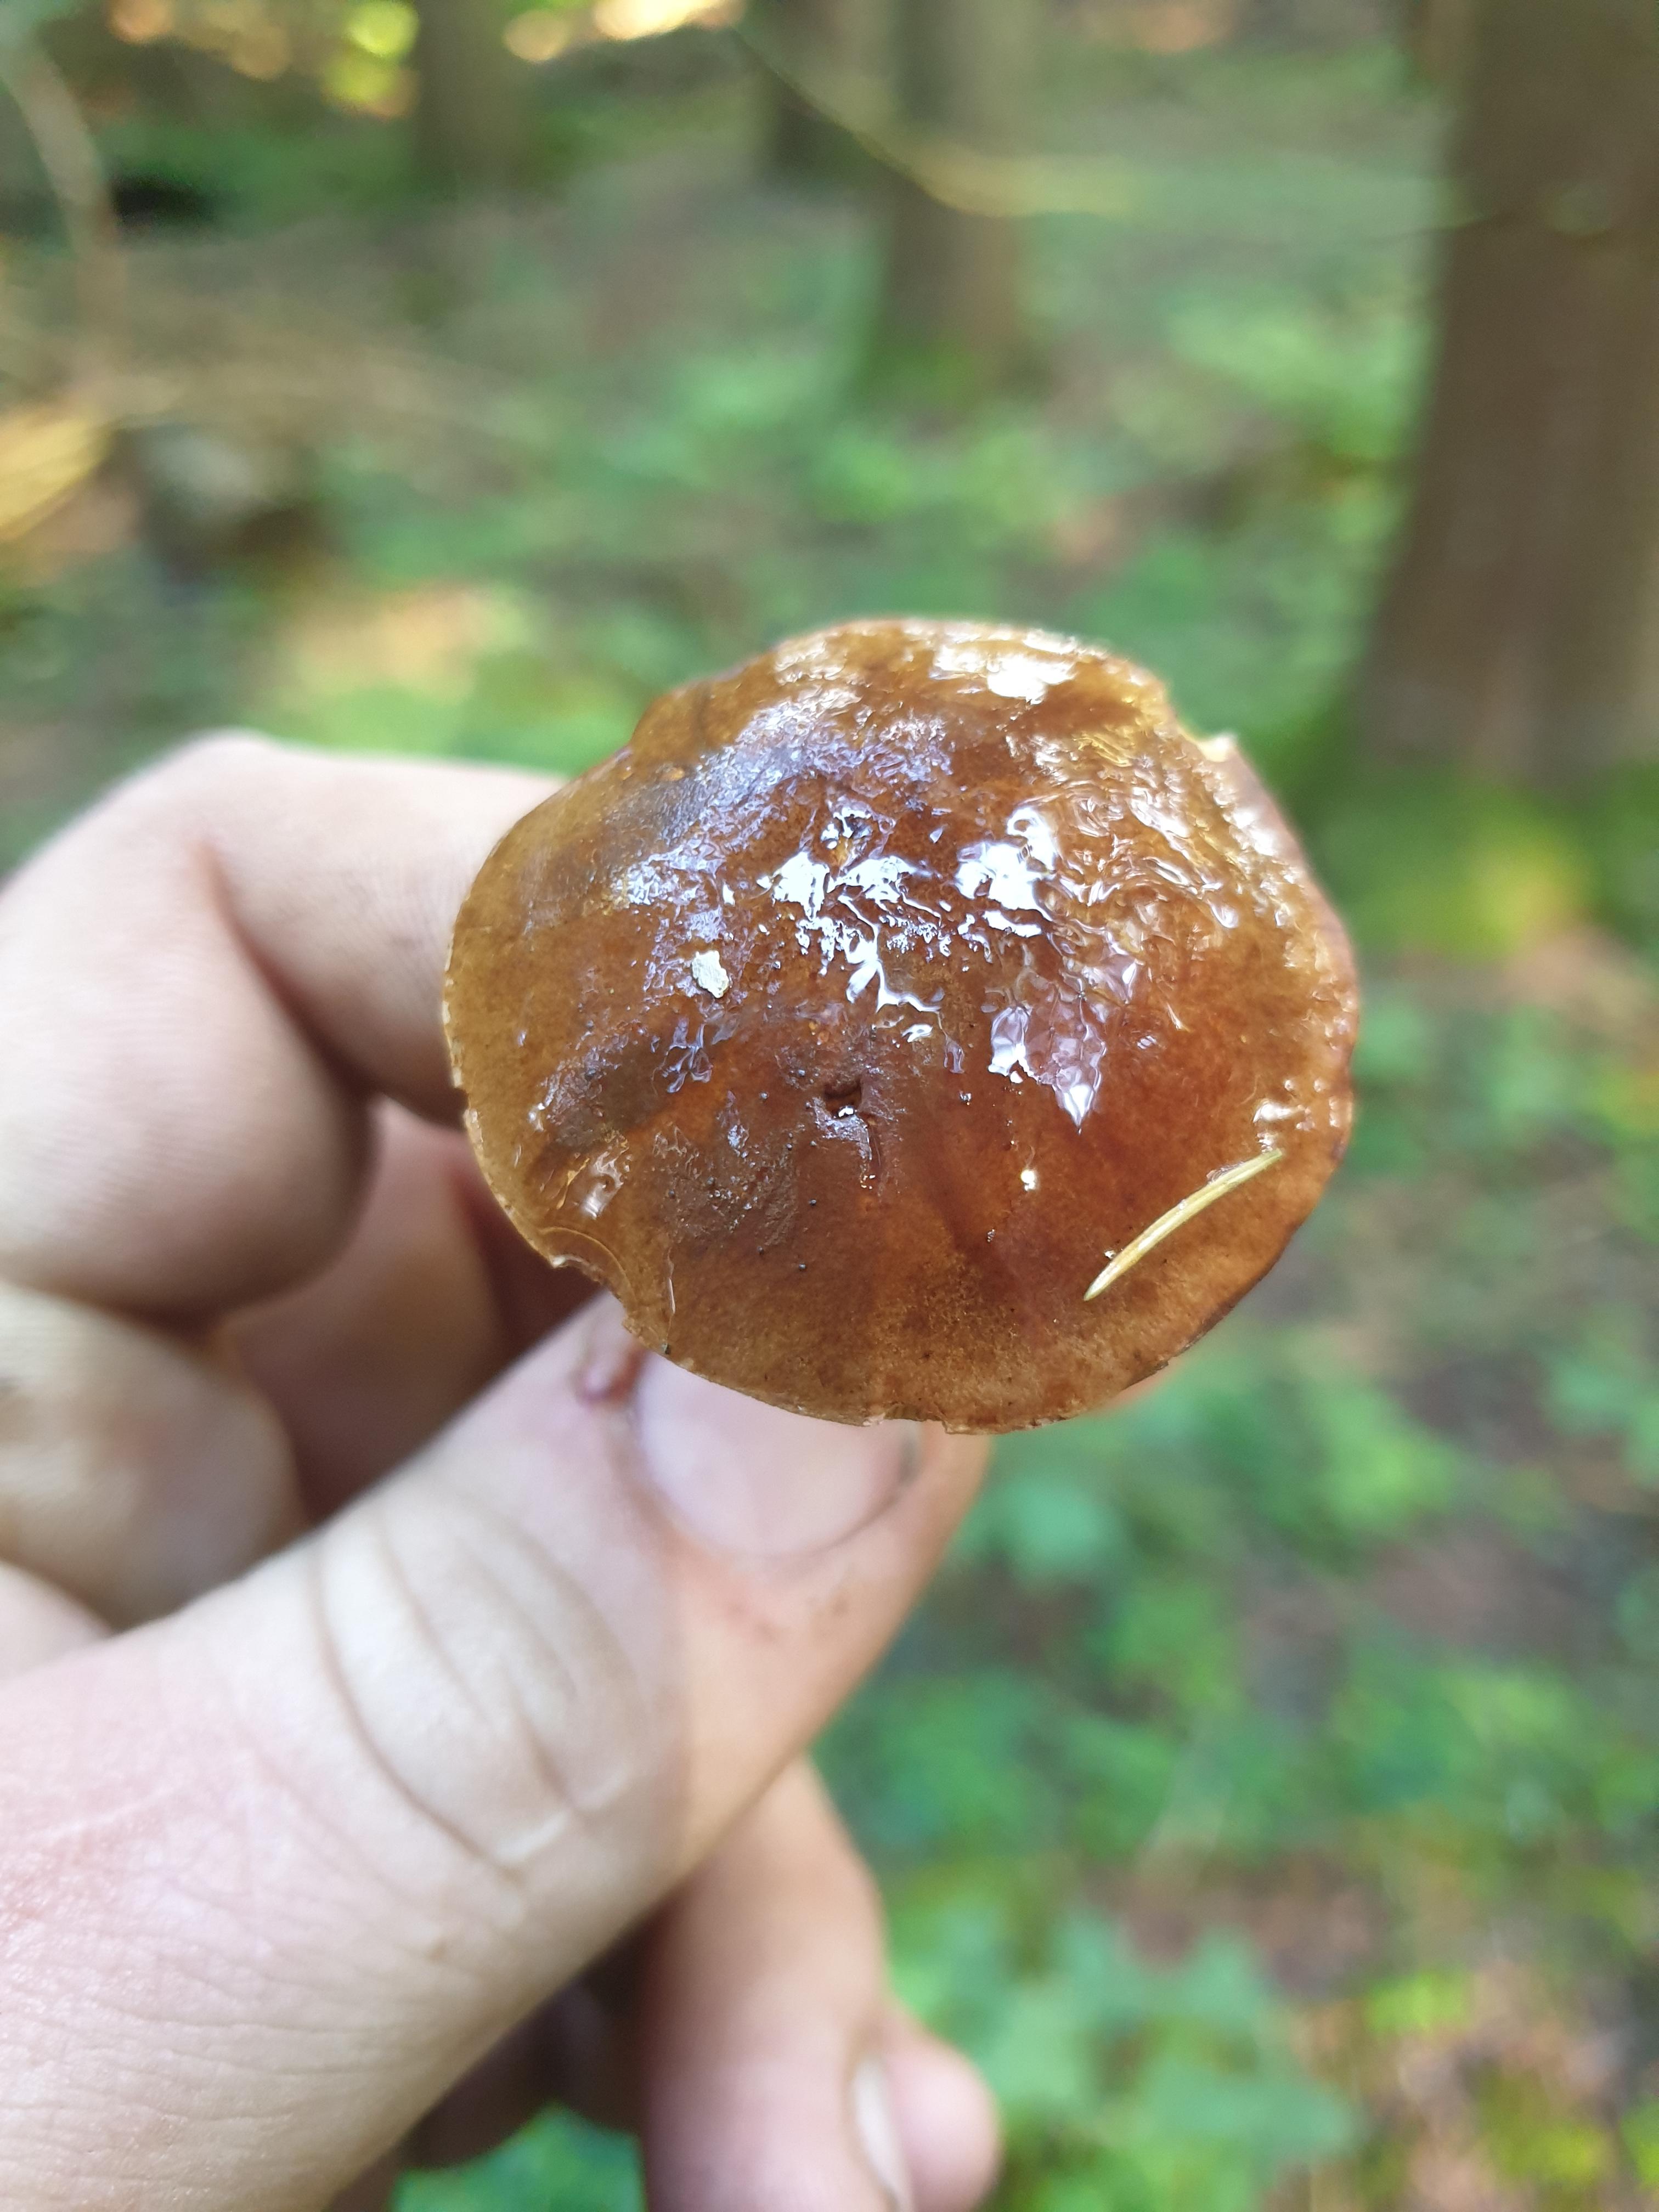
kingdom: Fungi
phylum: Basidiomycota
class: Agaricomycetes
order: Boletales
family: Boletaceae
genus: Imleria
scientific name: Imleria badia
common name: brunstokket rørhat
